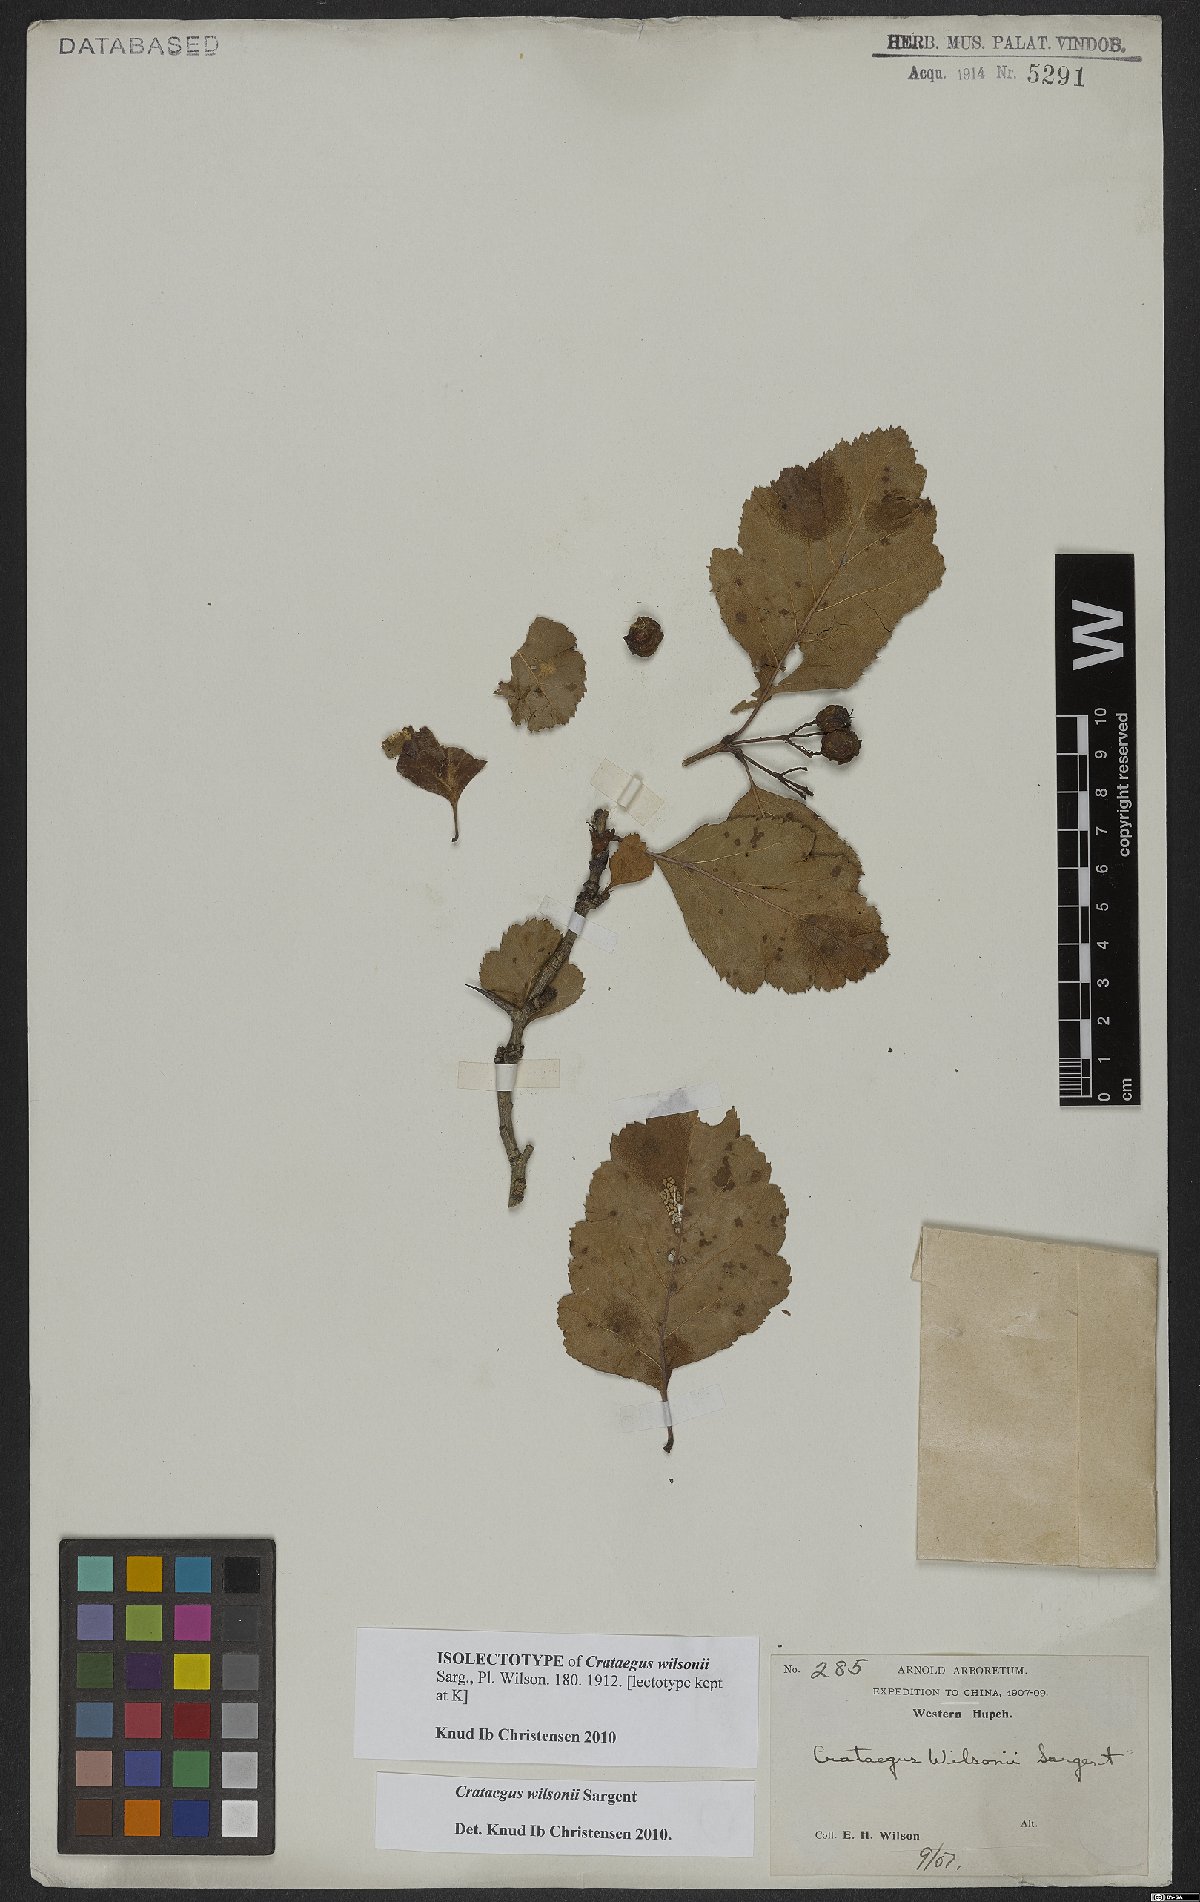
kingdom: Plantae
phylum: Tracheophyta
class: Magnoliopsida
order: Rosales
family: Rosaceae
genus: Crataegus
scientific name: Crataegus wilsonii
